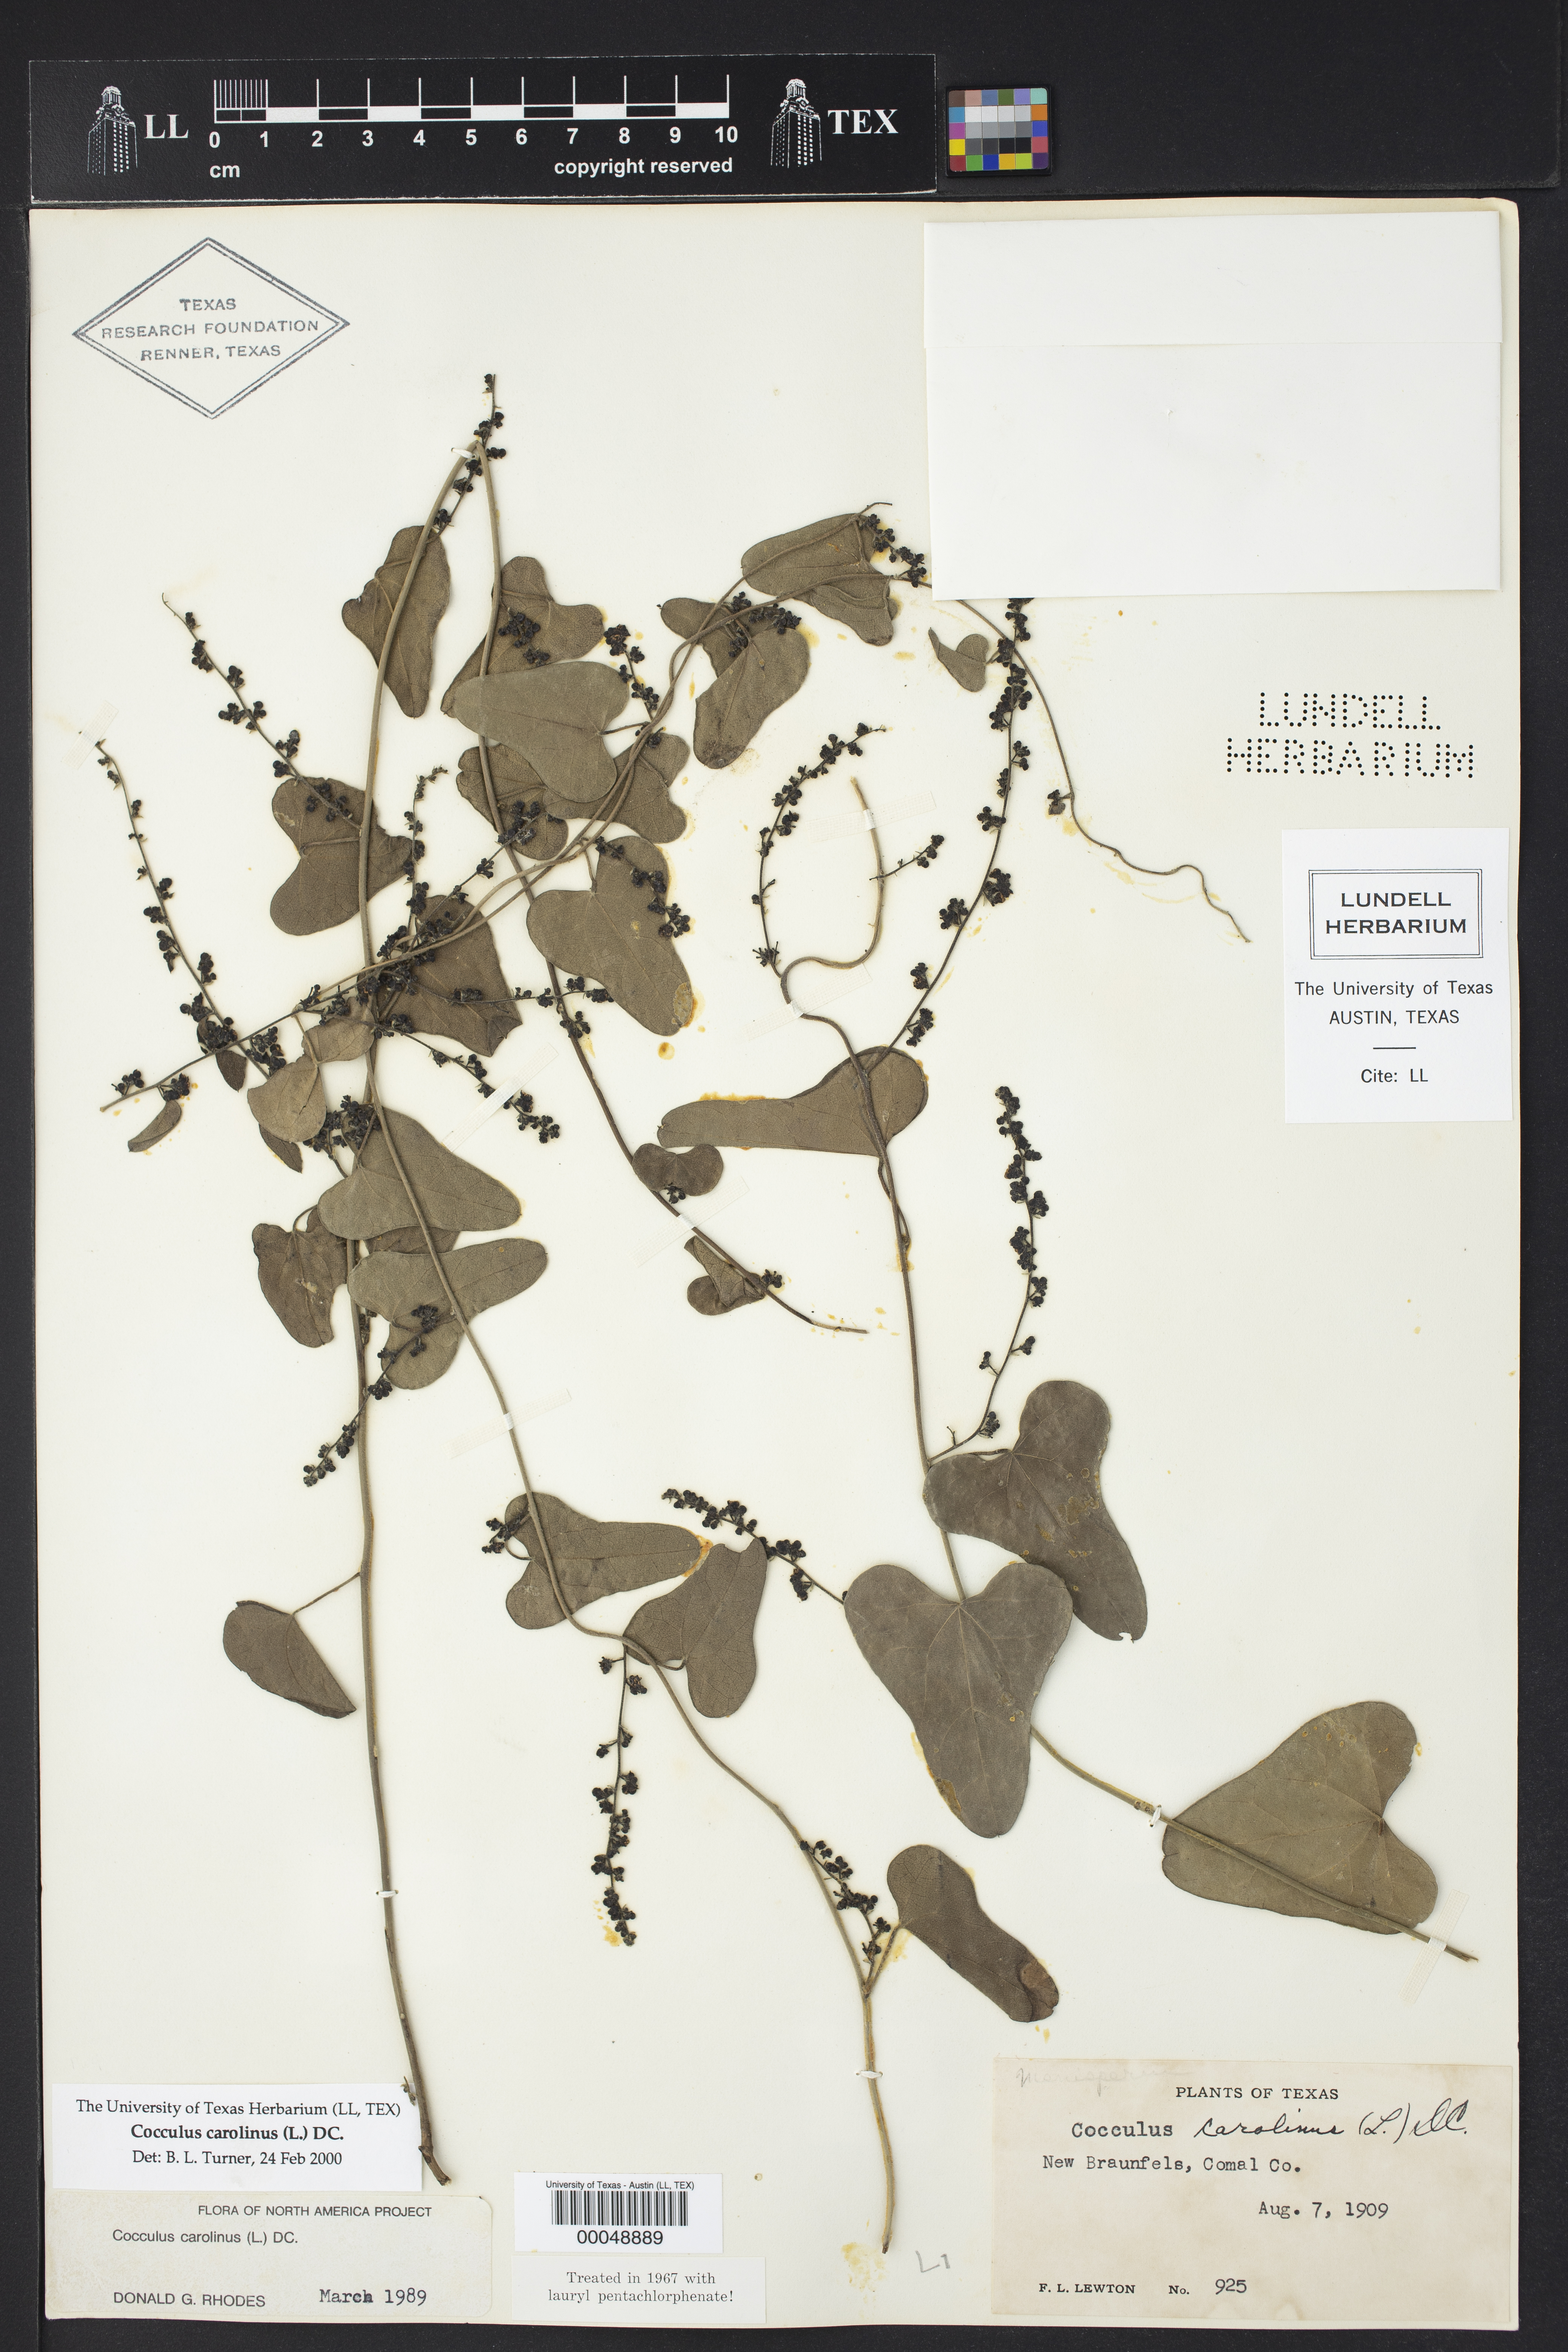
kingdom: Plantae
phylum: Tracheophyta
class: Magnoliopsida
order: Ranunculales
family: Menispermaceae
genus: Cocculus
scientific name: Cocculus carolinus
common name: Carolina moonseed
